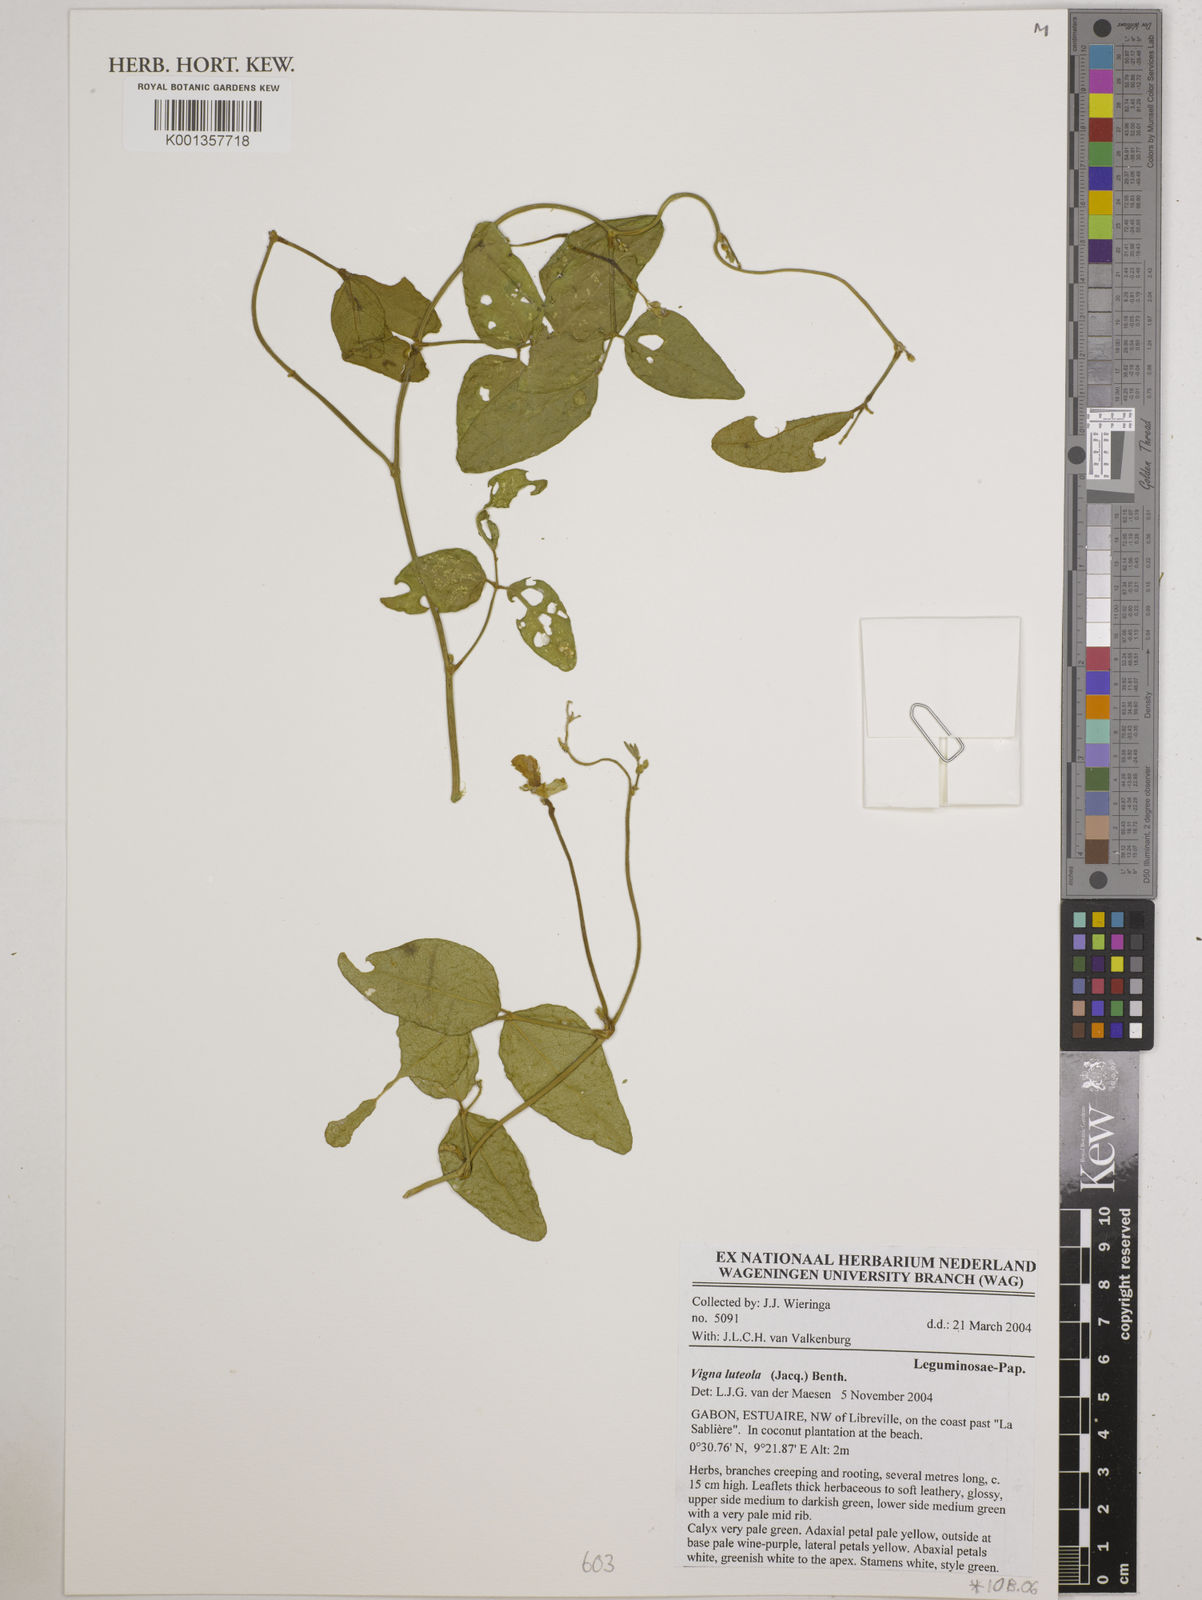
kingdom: Plantae
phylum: Tracheophyta
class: Magnoliopsida
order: Fabales
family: Fabaceae
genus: Vigna
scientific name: Vigna luteola
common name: Hairypod cowpea
